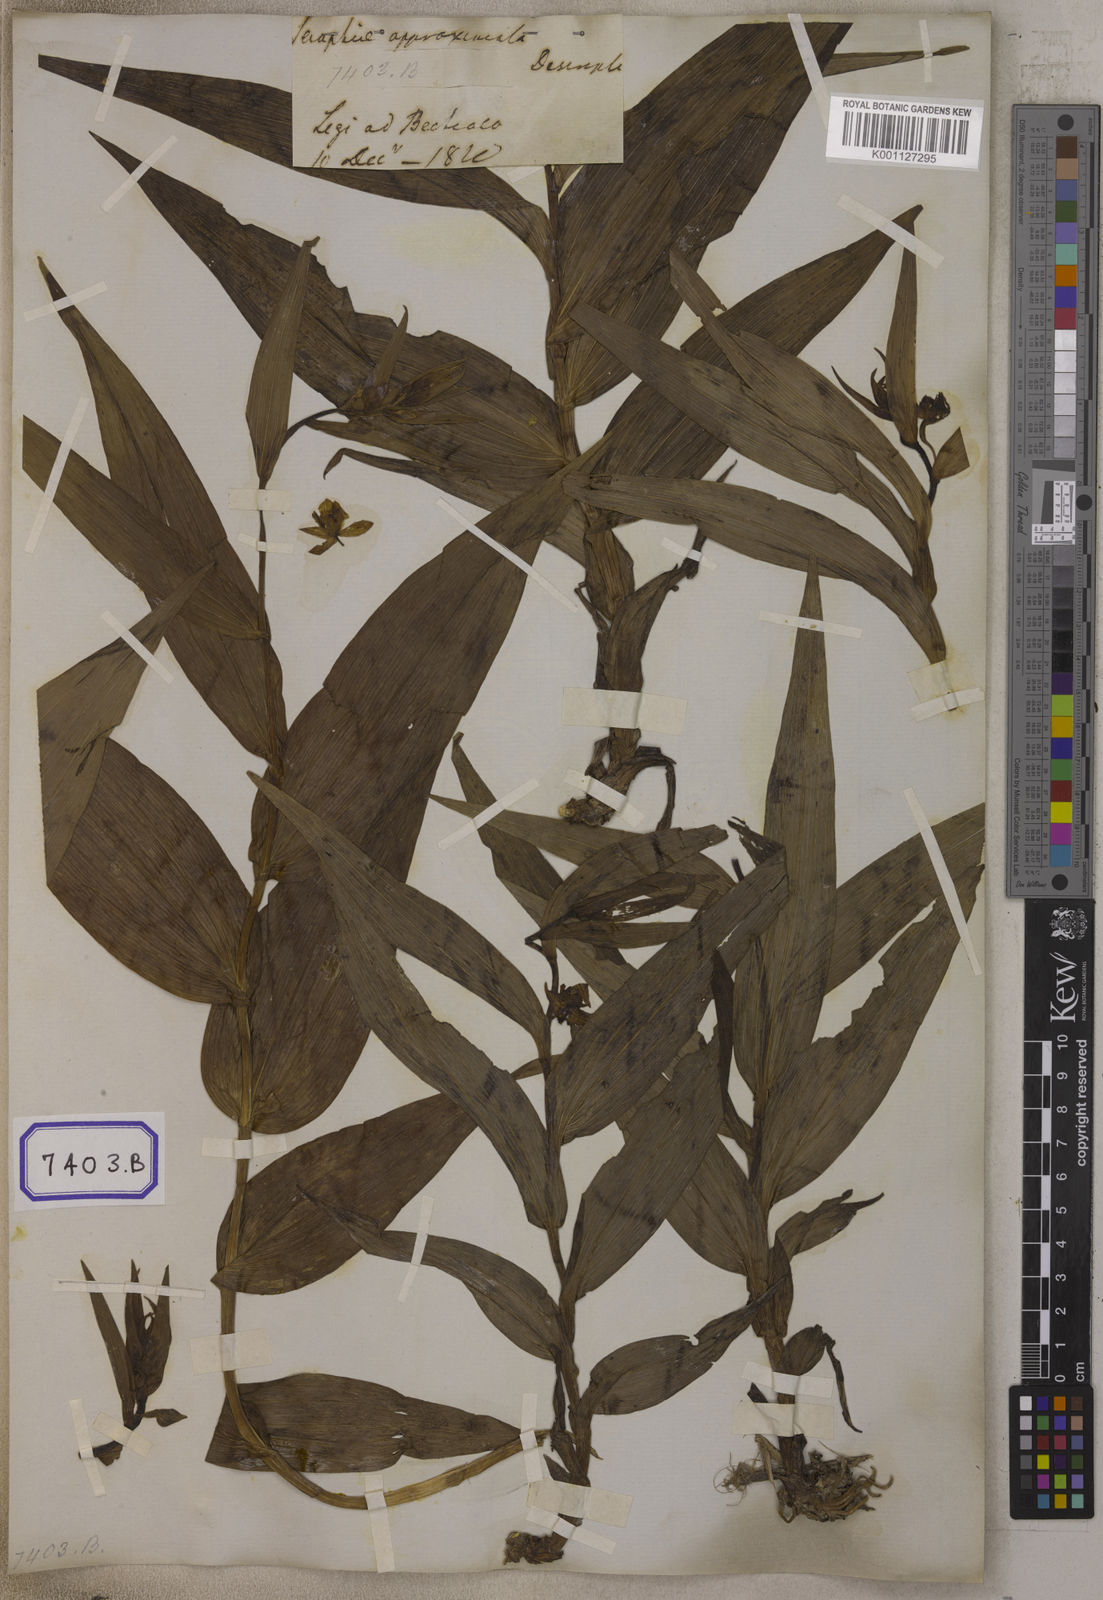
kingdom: Plantae
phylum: Tracheophyta
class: Liliopsida
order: Asparagales
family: Orchidaceae
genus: Epipactis
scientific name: Epipactis
